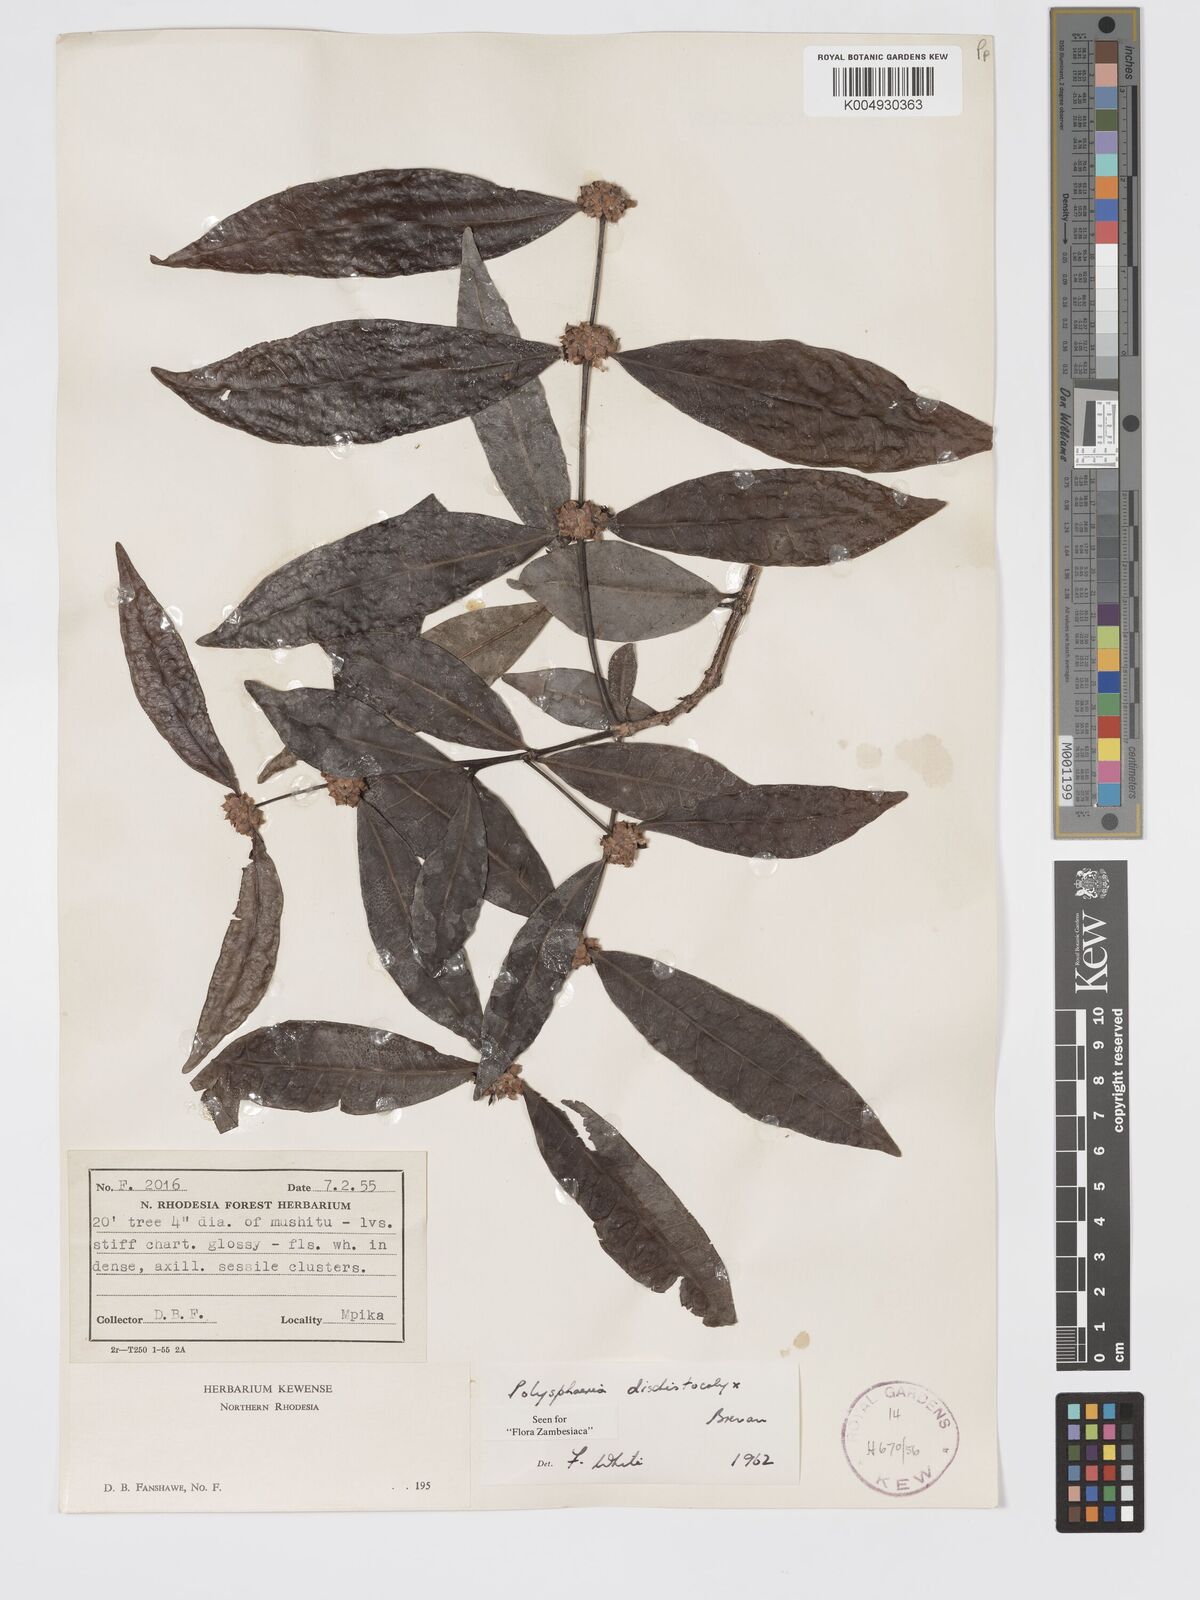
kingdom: Plantae
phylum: Tracheophyta
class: Magnoliopsida
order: Gentianales
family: Rubiaceae
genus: Polysphaeria
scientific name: Polysphaeria dischistocalyx
